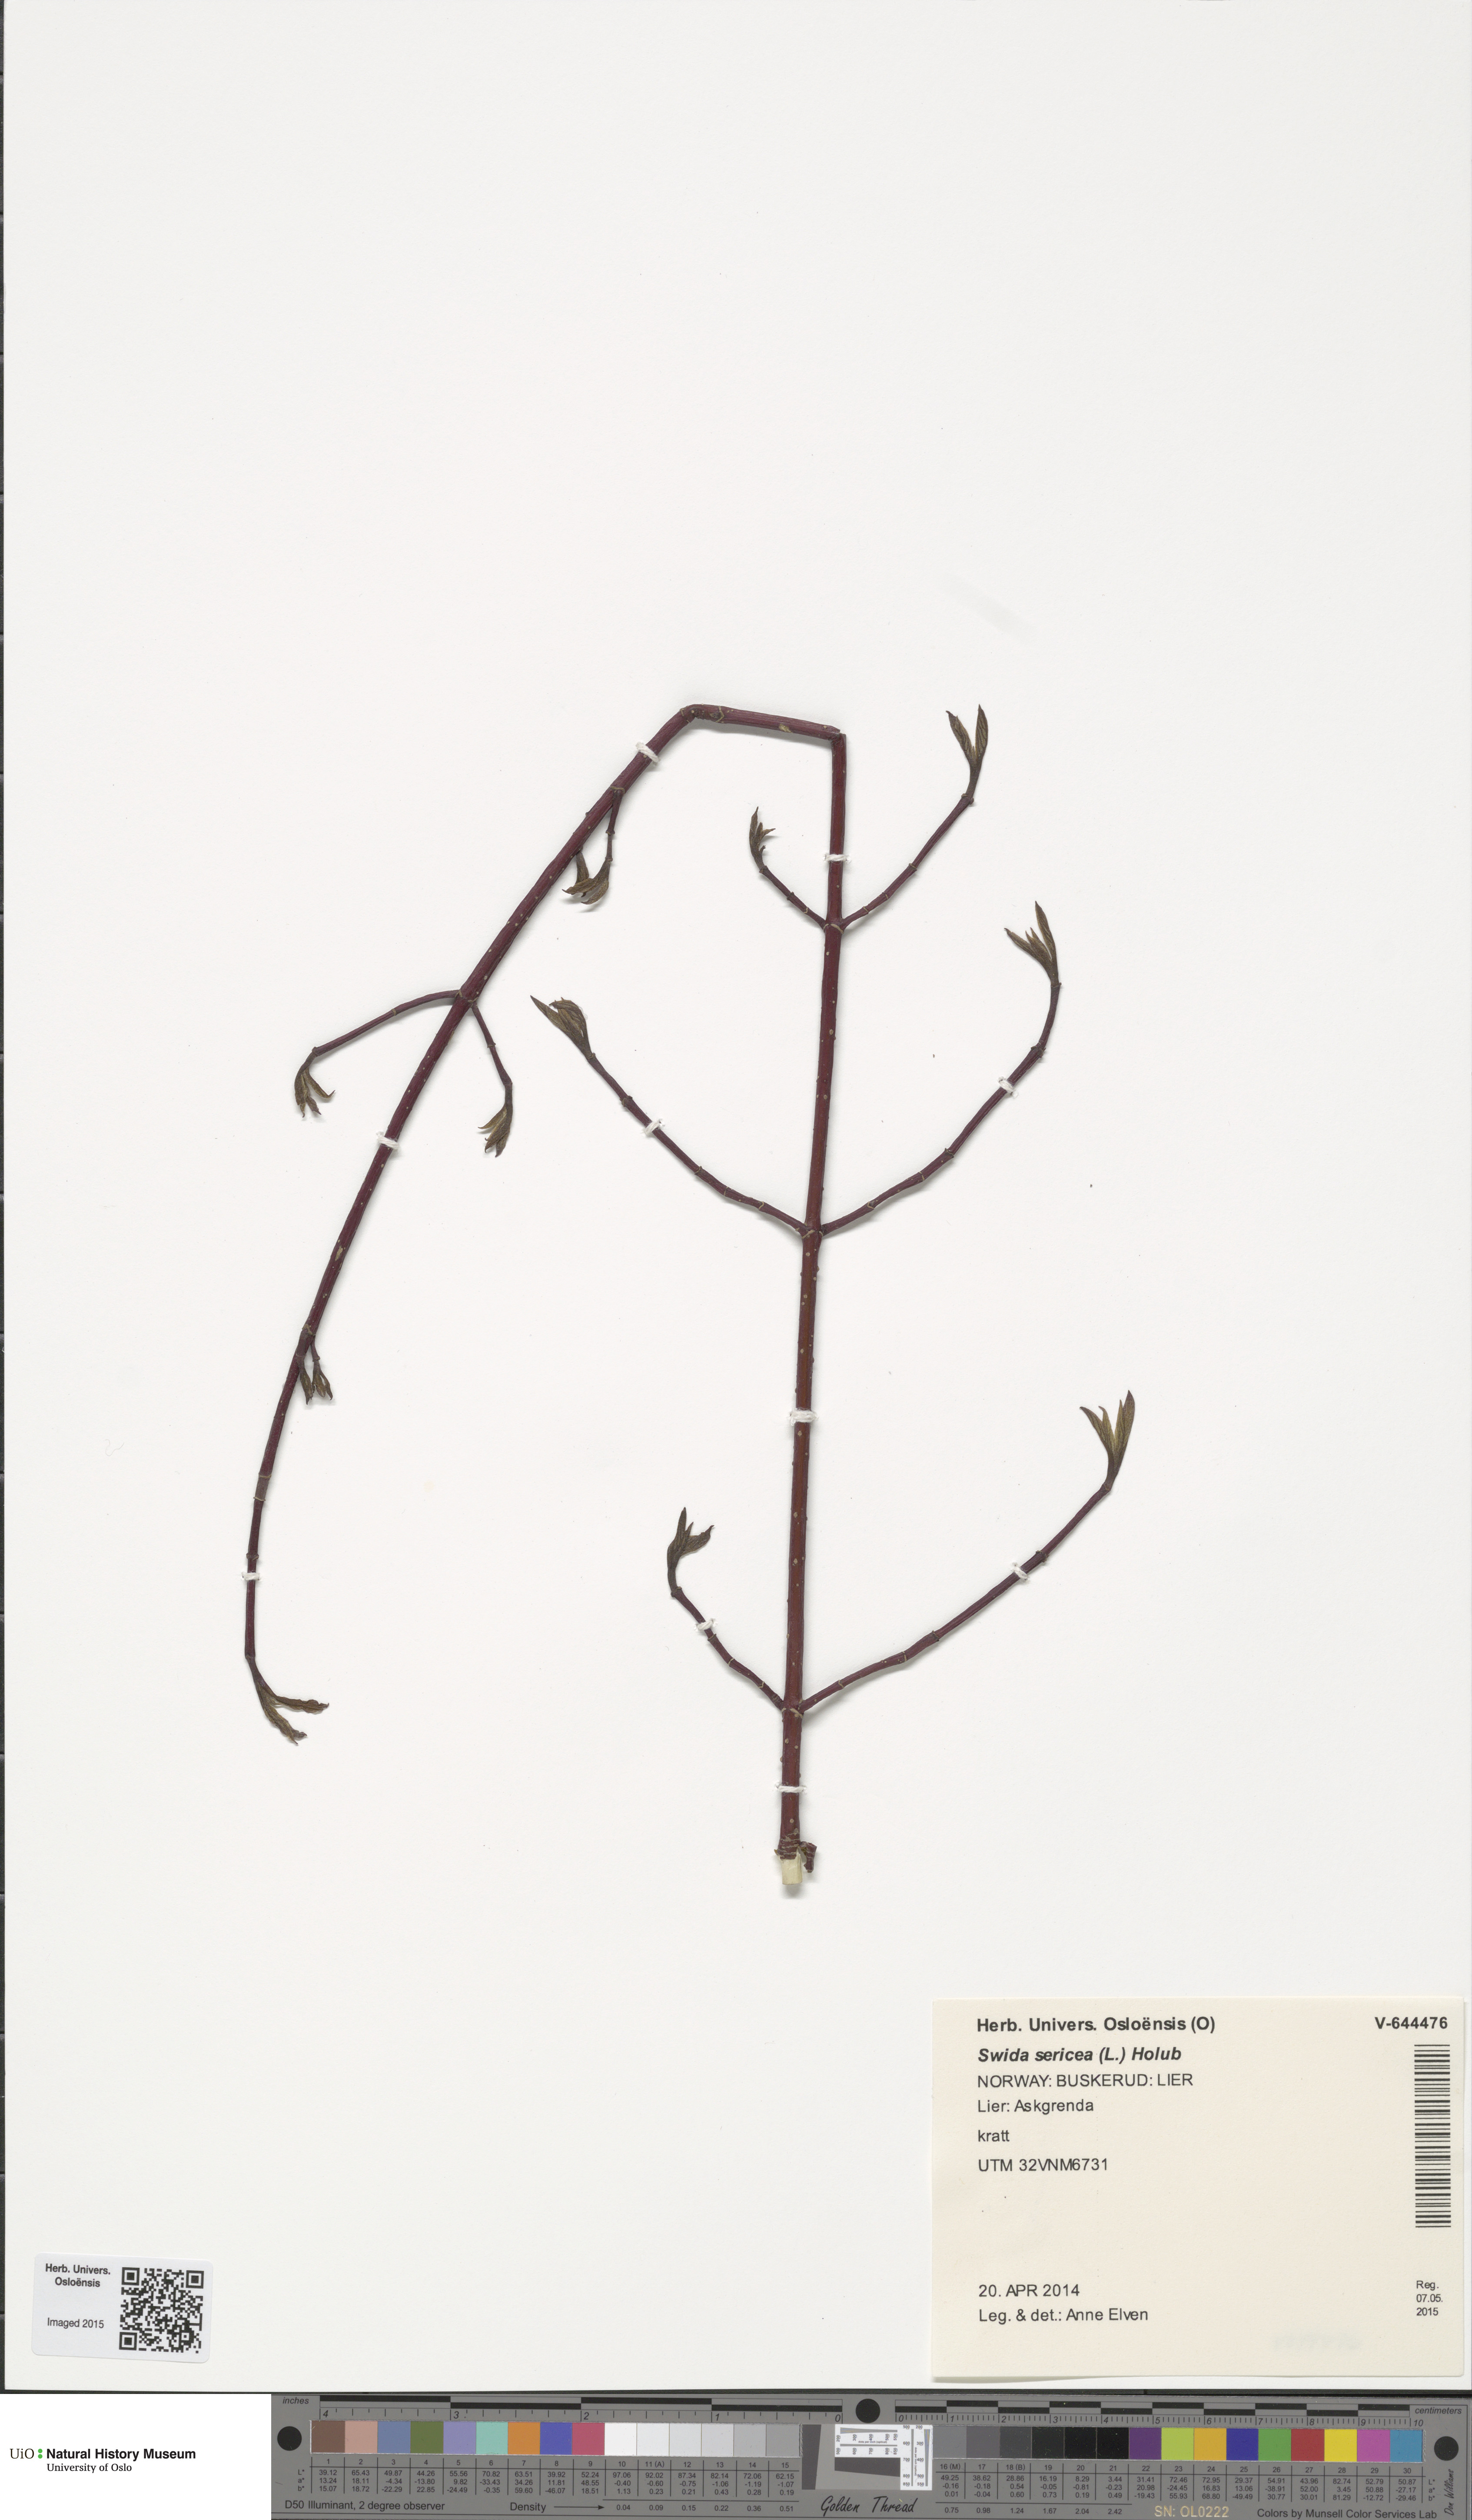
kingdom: Plantae
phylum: Tracheophyta
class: Magnoliopsida
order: Cornales
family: Cornaceae
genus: Cornus
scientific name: Cornus sericea
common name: Red-osier dogwood
